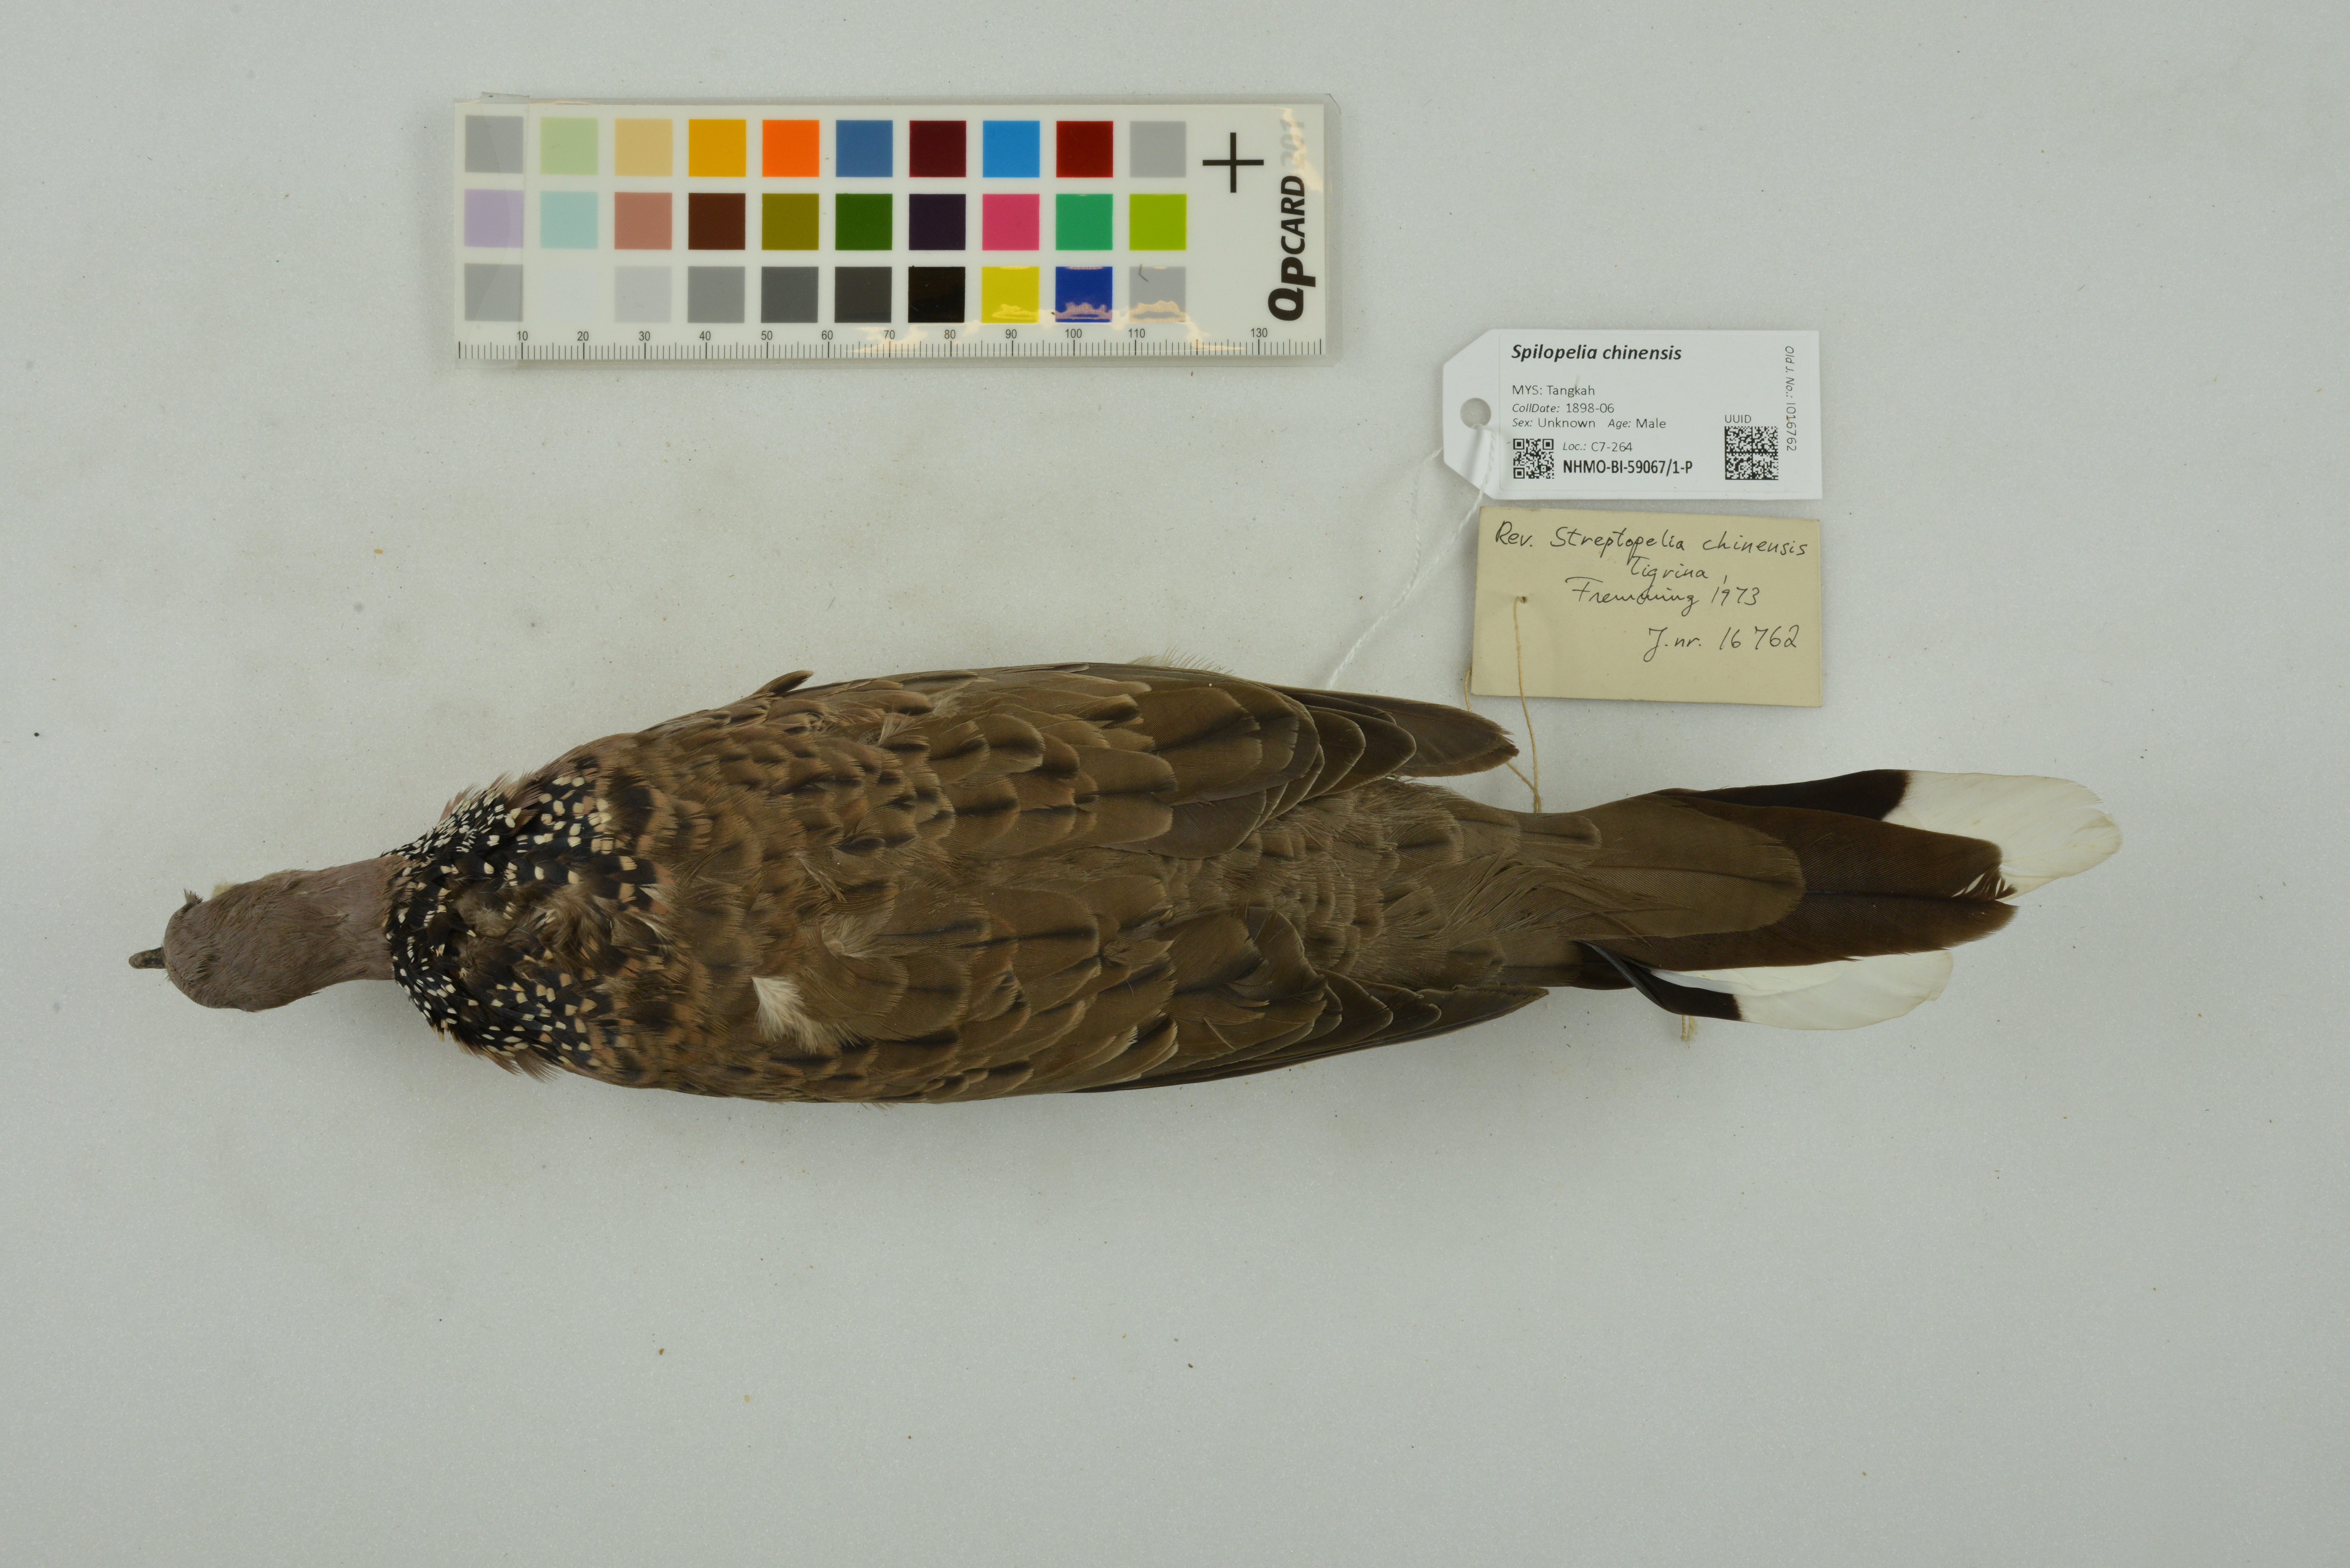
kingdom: Animalia
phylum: Chordata
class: Aves
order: Columbiformes
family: Columbidae
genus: Spilopelia
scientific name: Spilopelia chinensis
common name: Spotted dove
